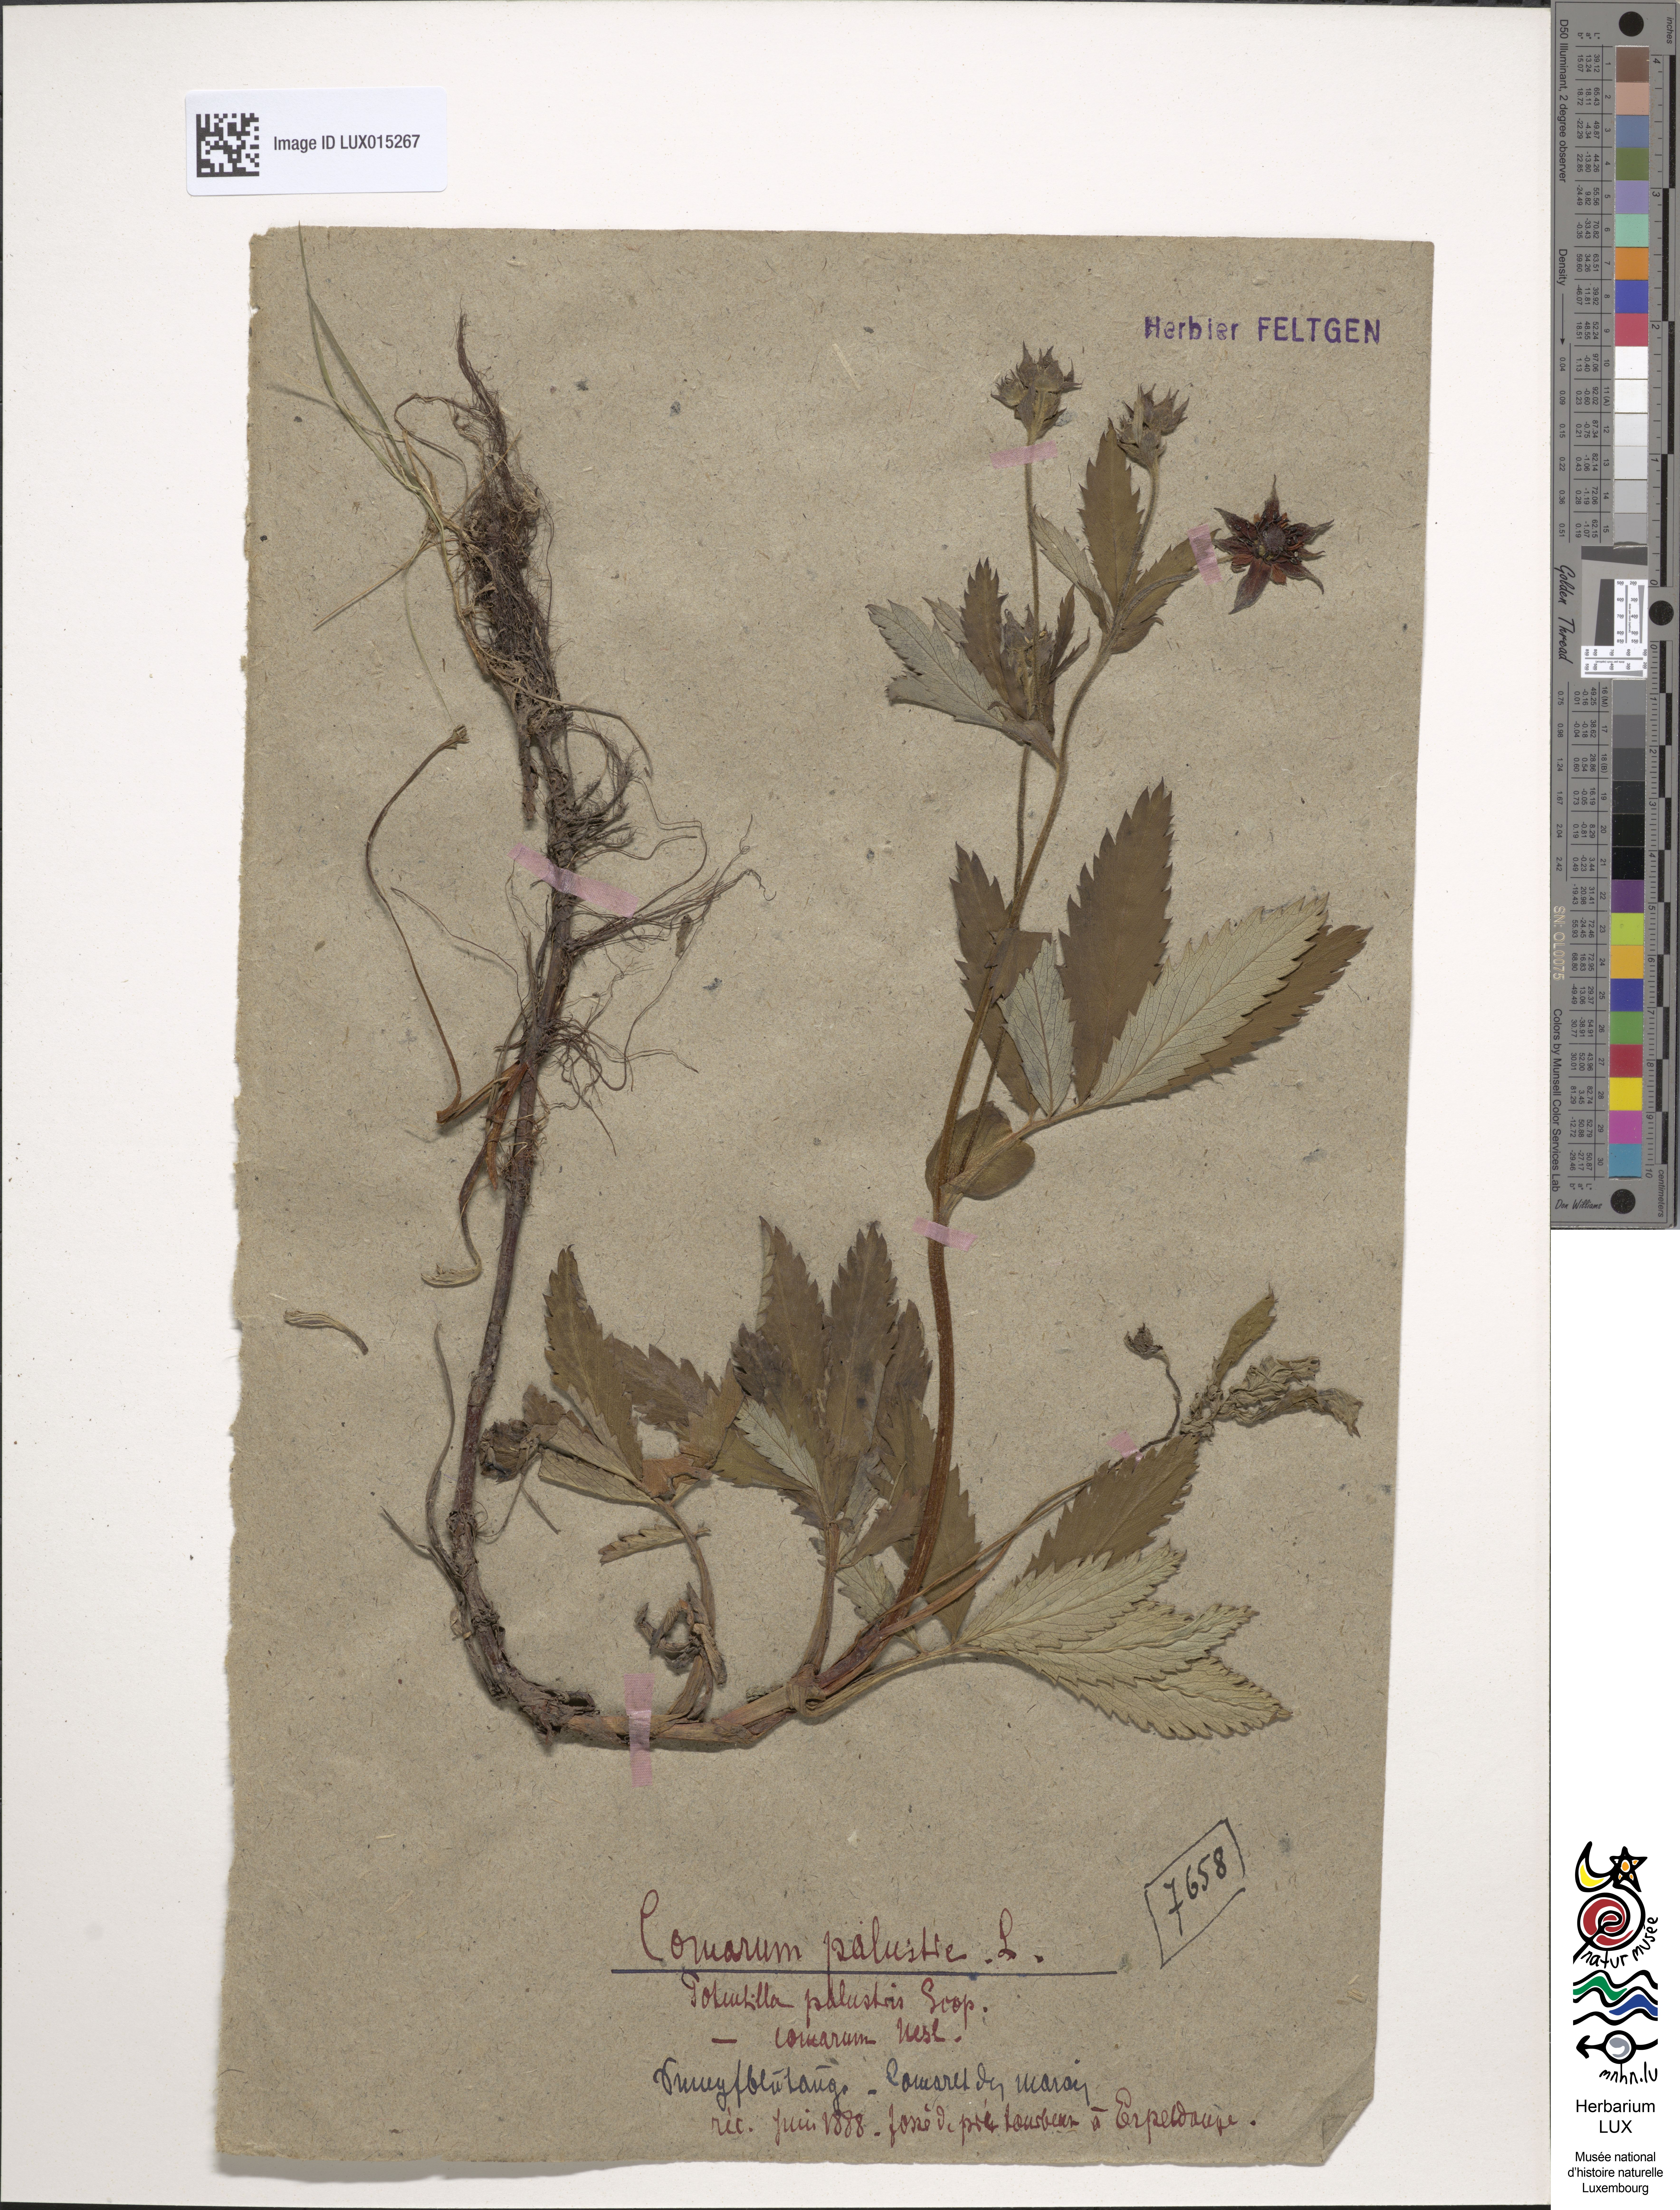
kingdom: Plantae
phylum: Tracheophyta
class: Magnoliopsida
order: Rosales
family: Rosaceae
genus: Comarum
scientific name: Comarum palustre
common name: Marsh cinquefoil
